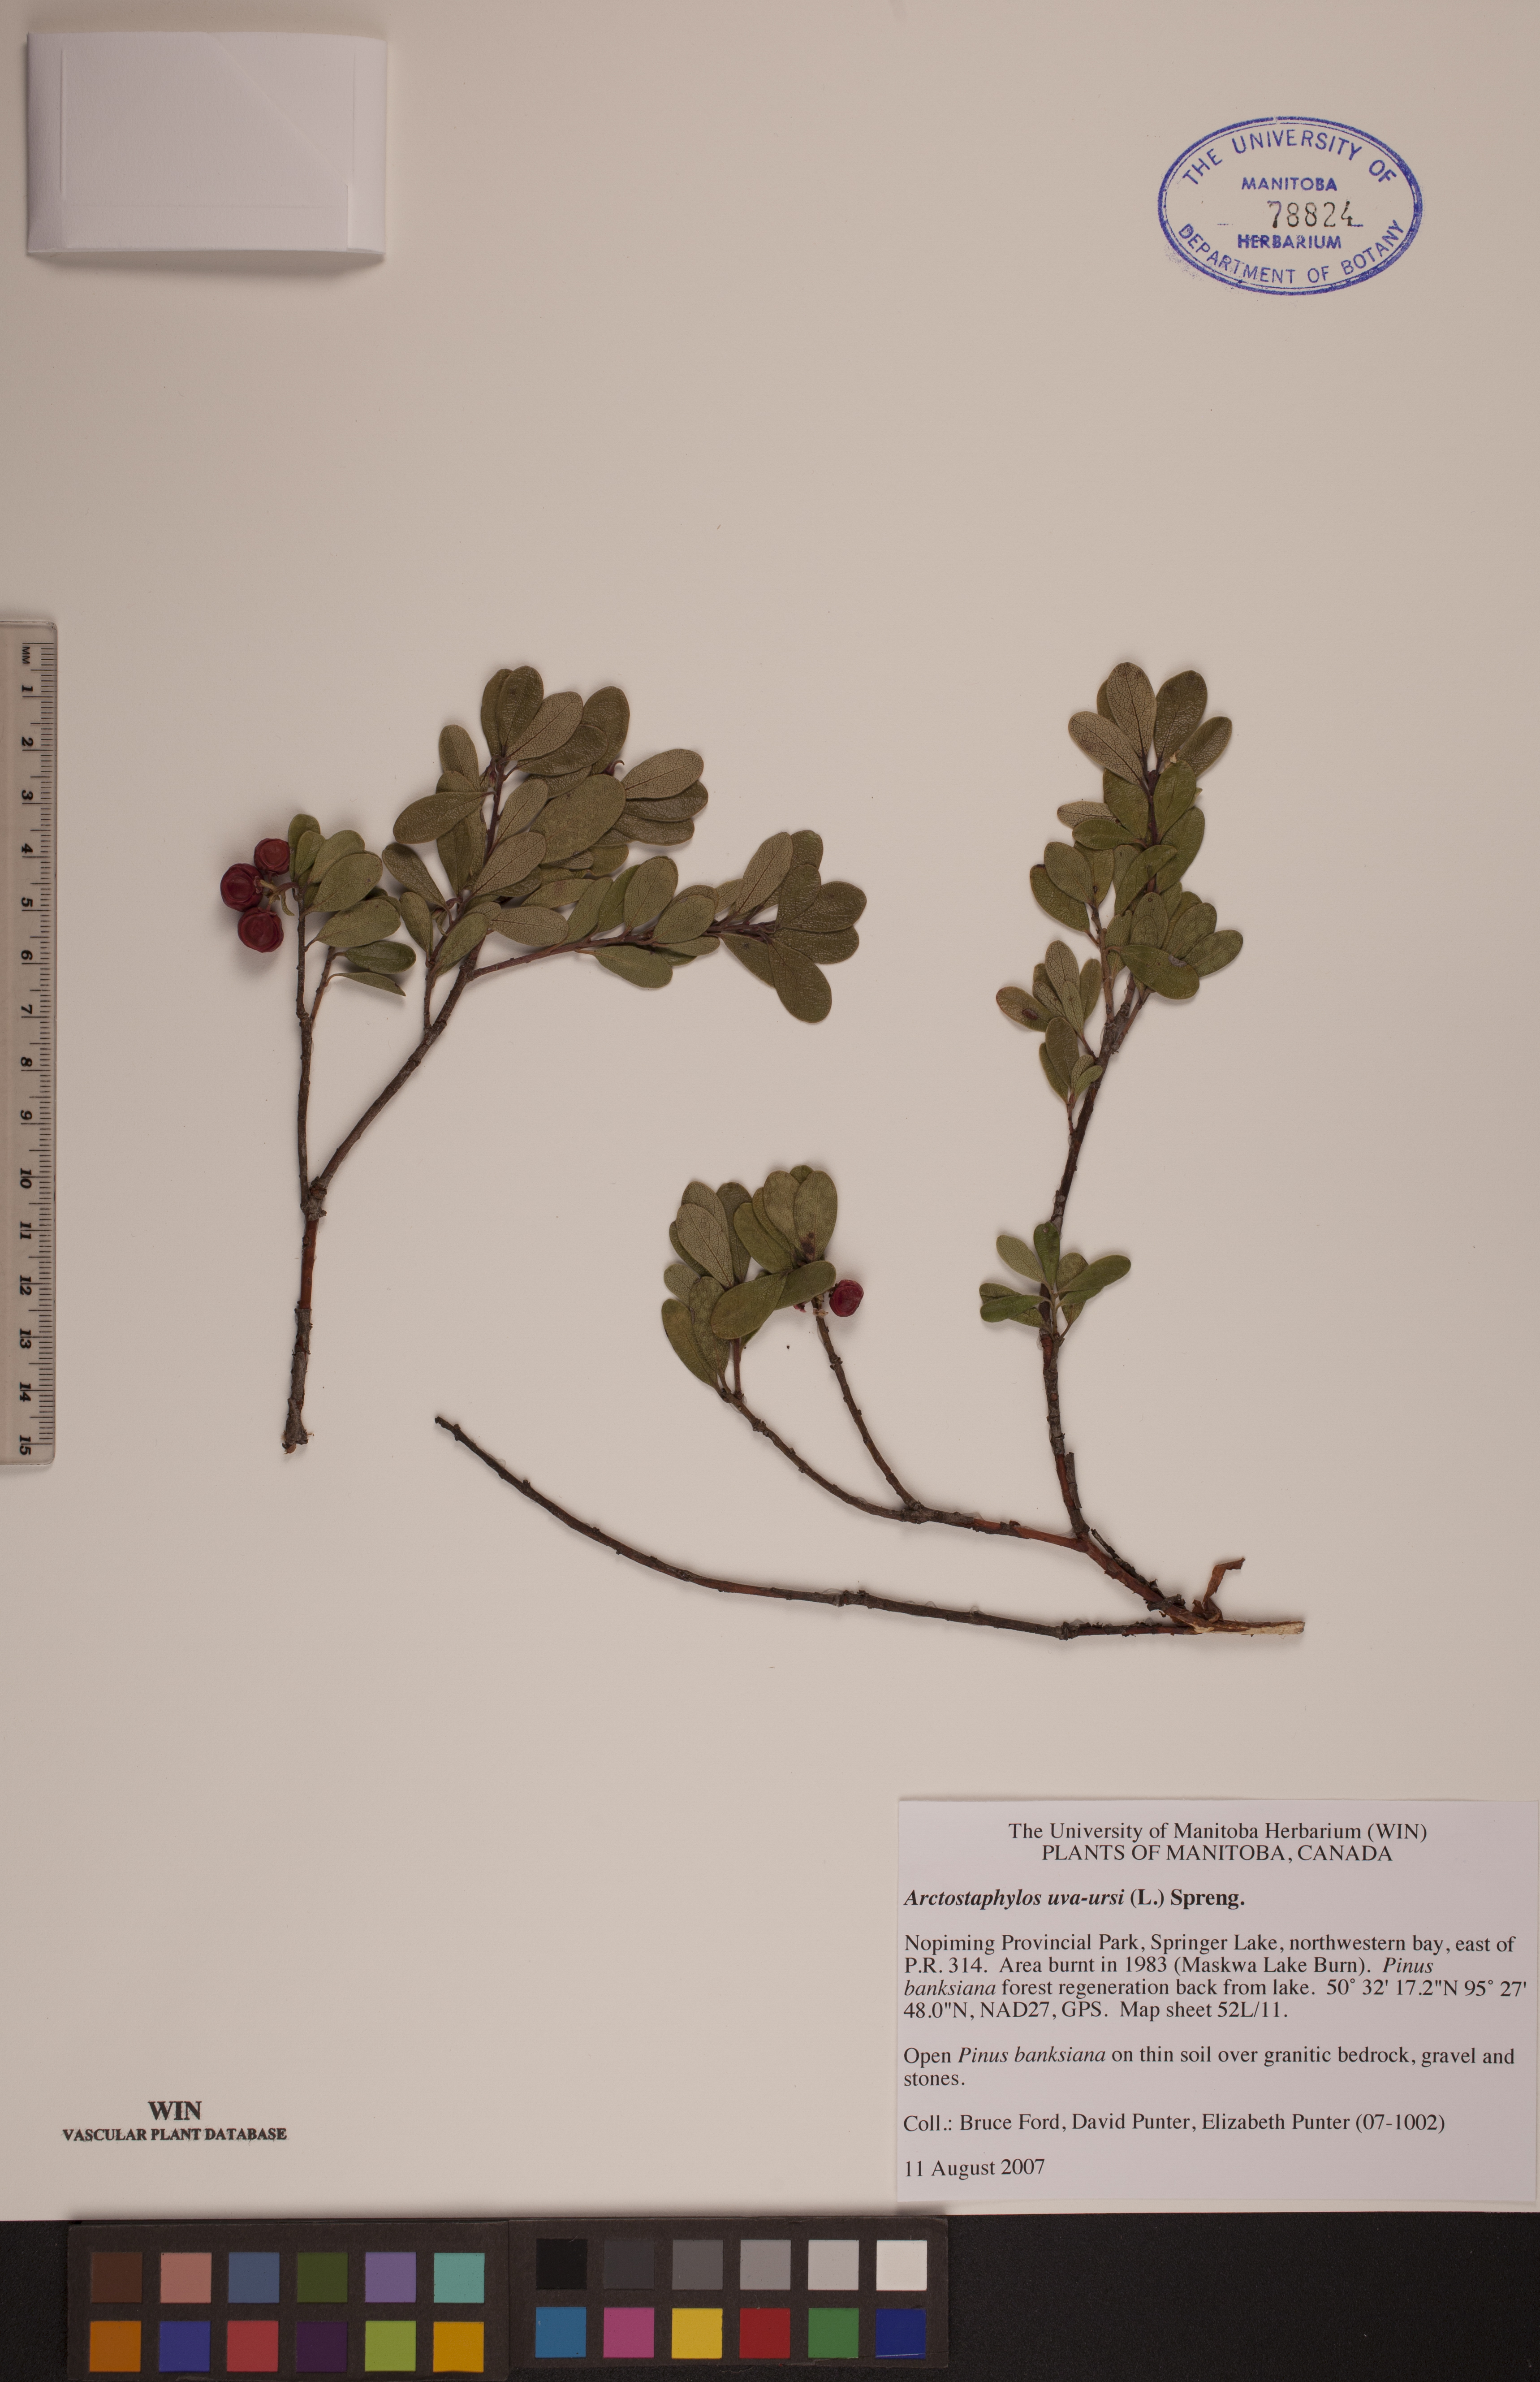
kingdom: Plantae
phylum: Tracheophyta
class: Magnoliopsida
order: Ericales
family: Ericaceae
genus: Arctostaphylos
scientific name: Arctostaphylos uva-ursi
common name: Bearberry
